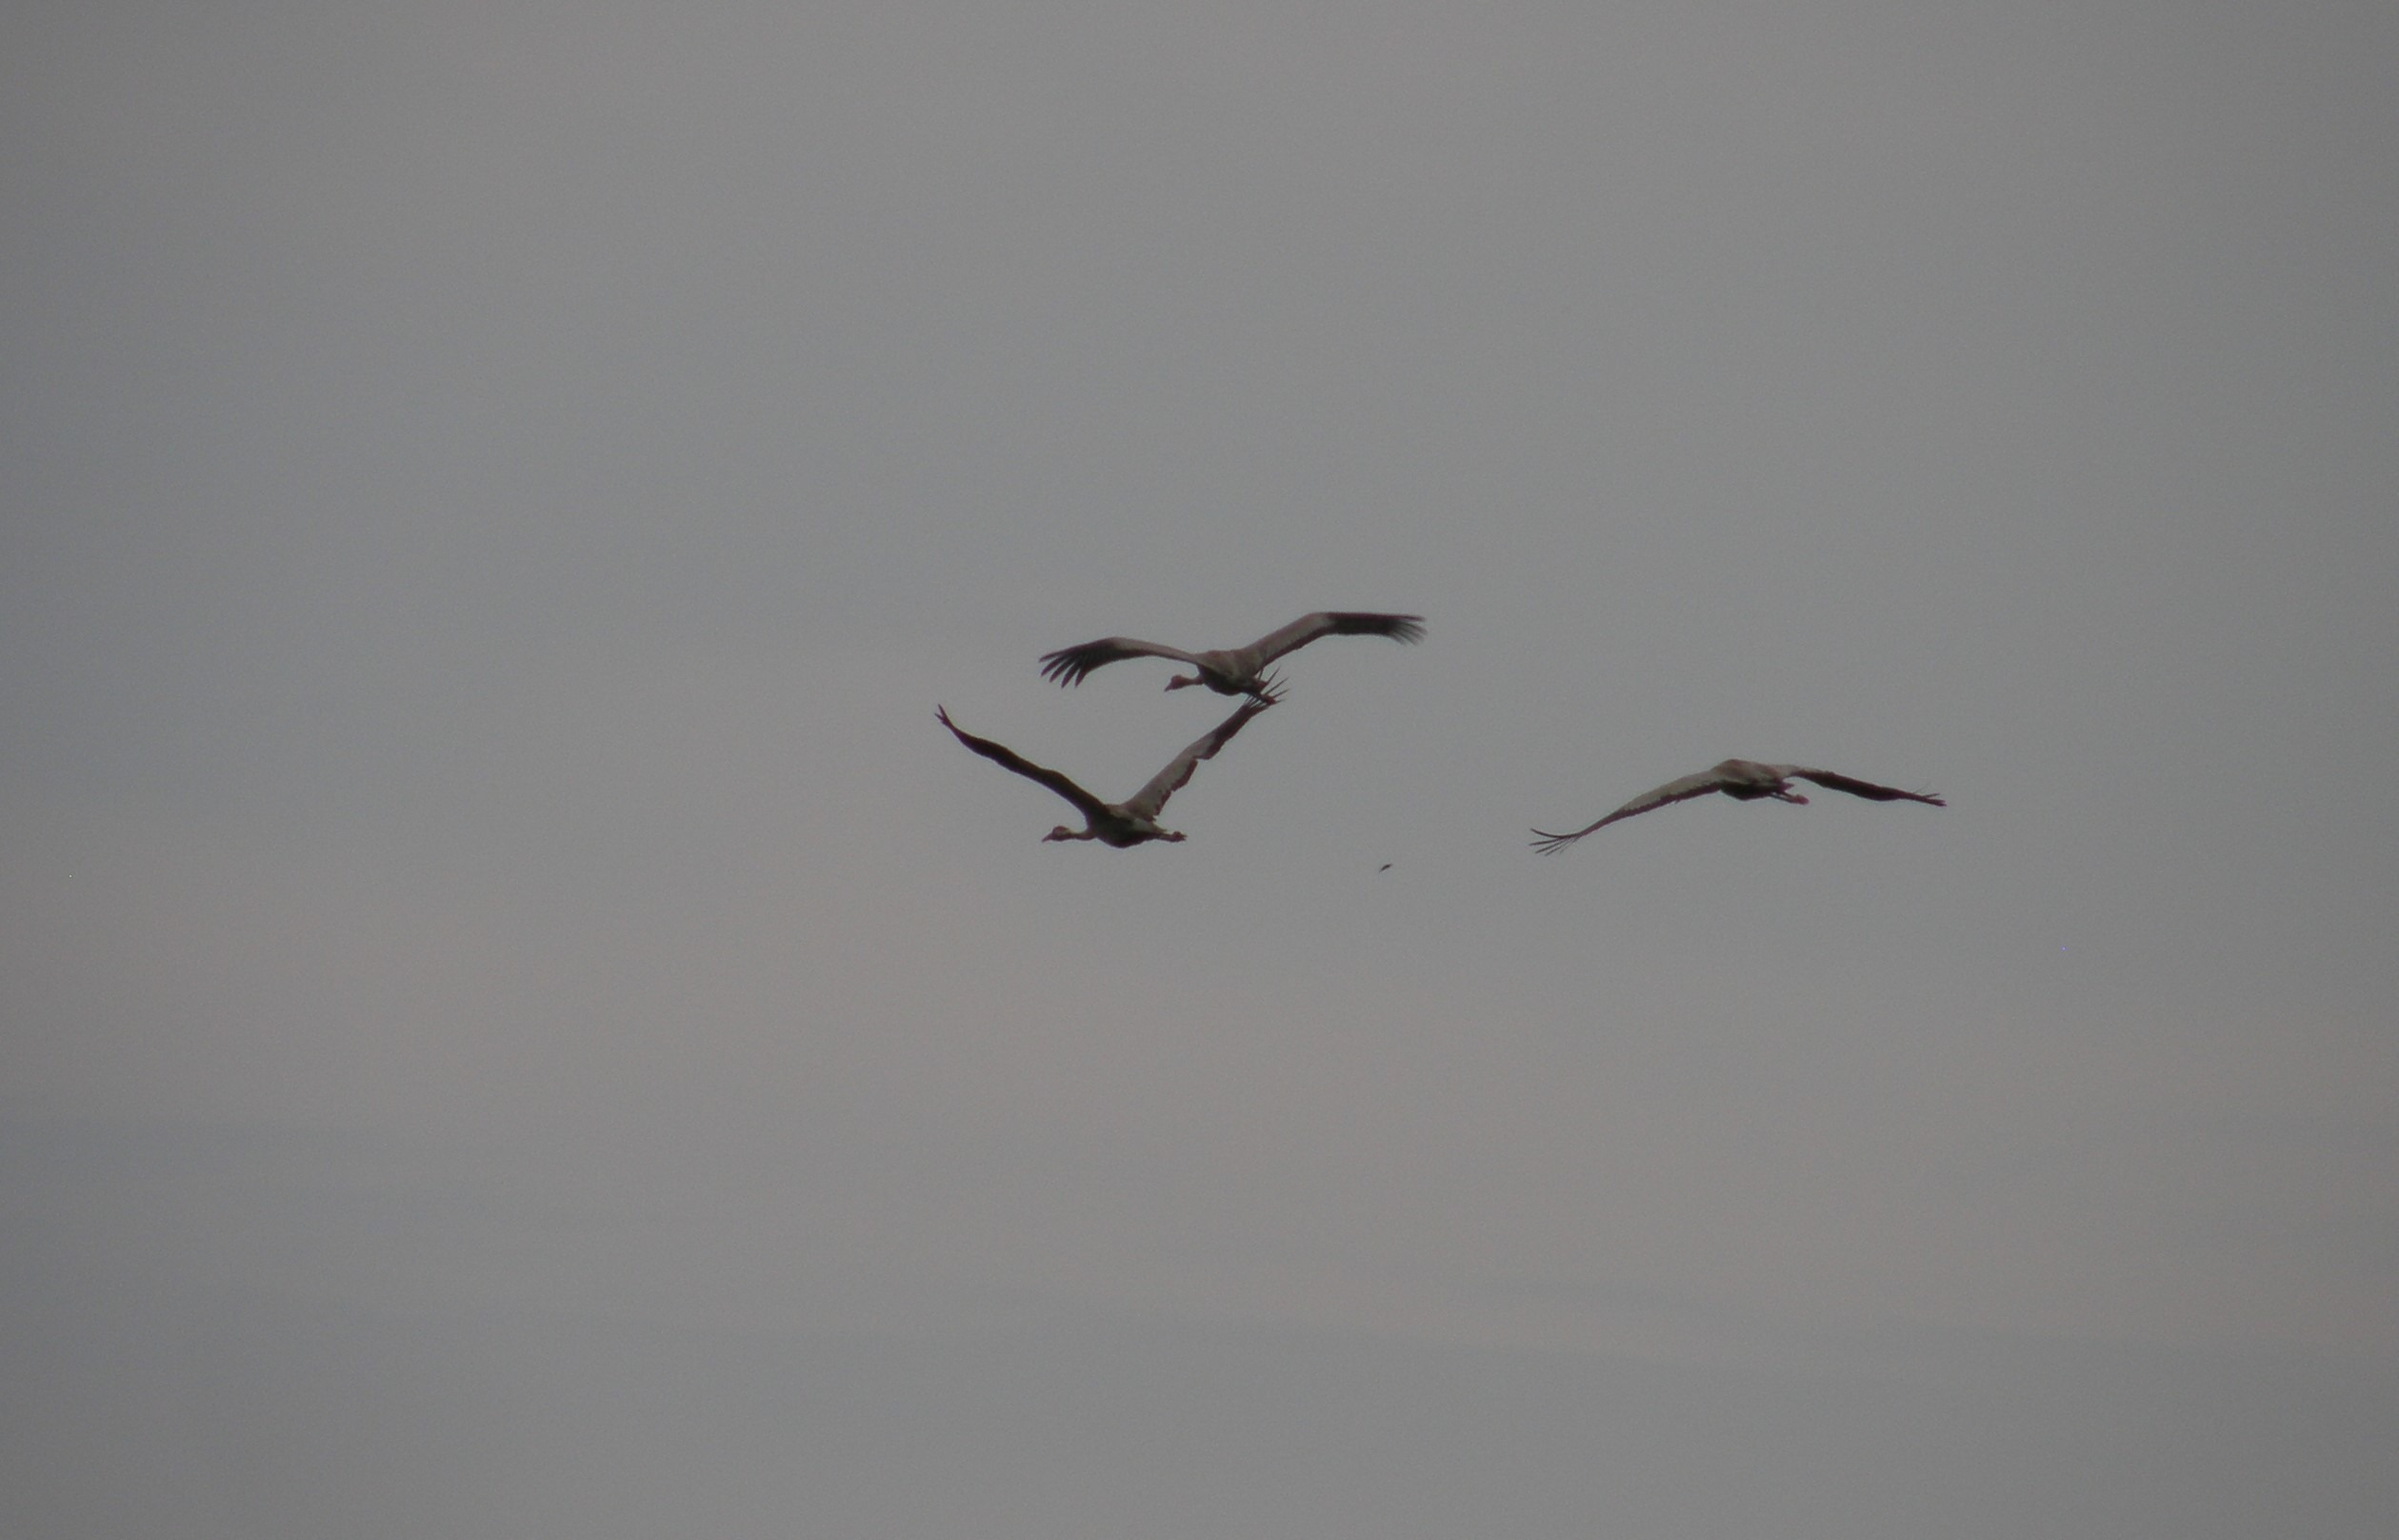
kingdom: Animalia
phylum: Chordata
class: Aves
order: Gruiformes
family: Gruidae
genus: Grus
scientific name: Grus grus
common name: Trane
